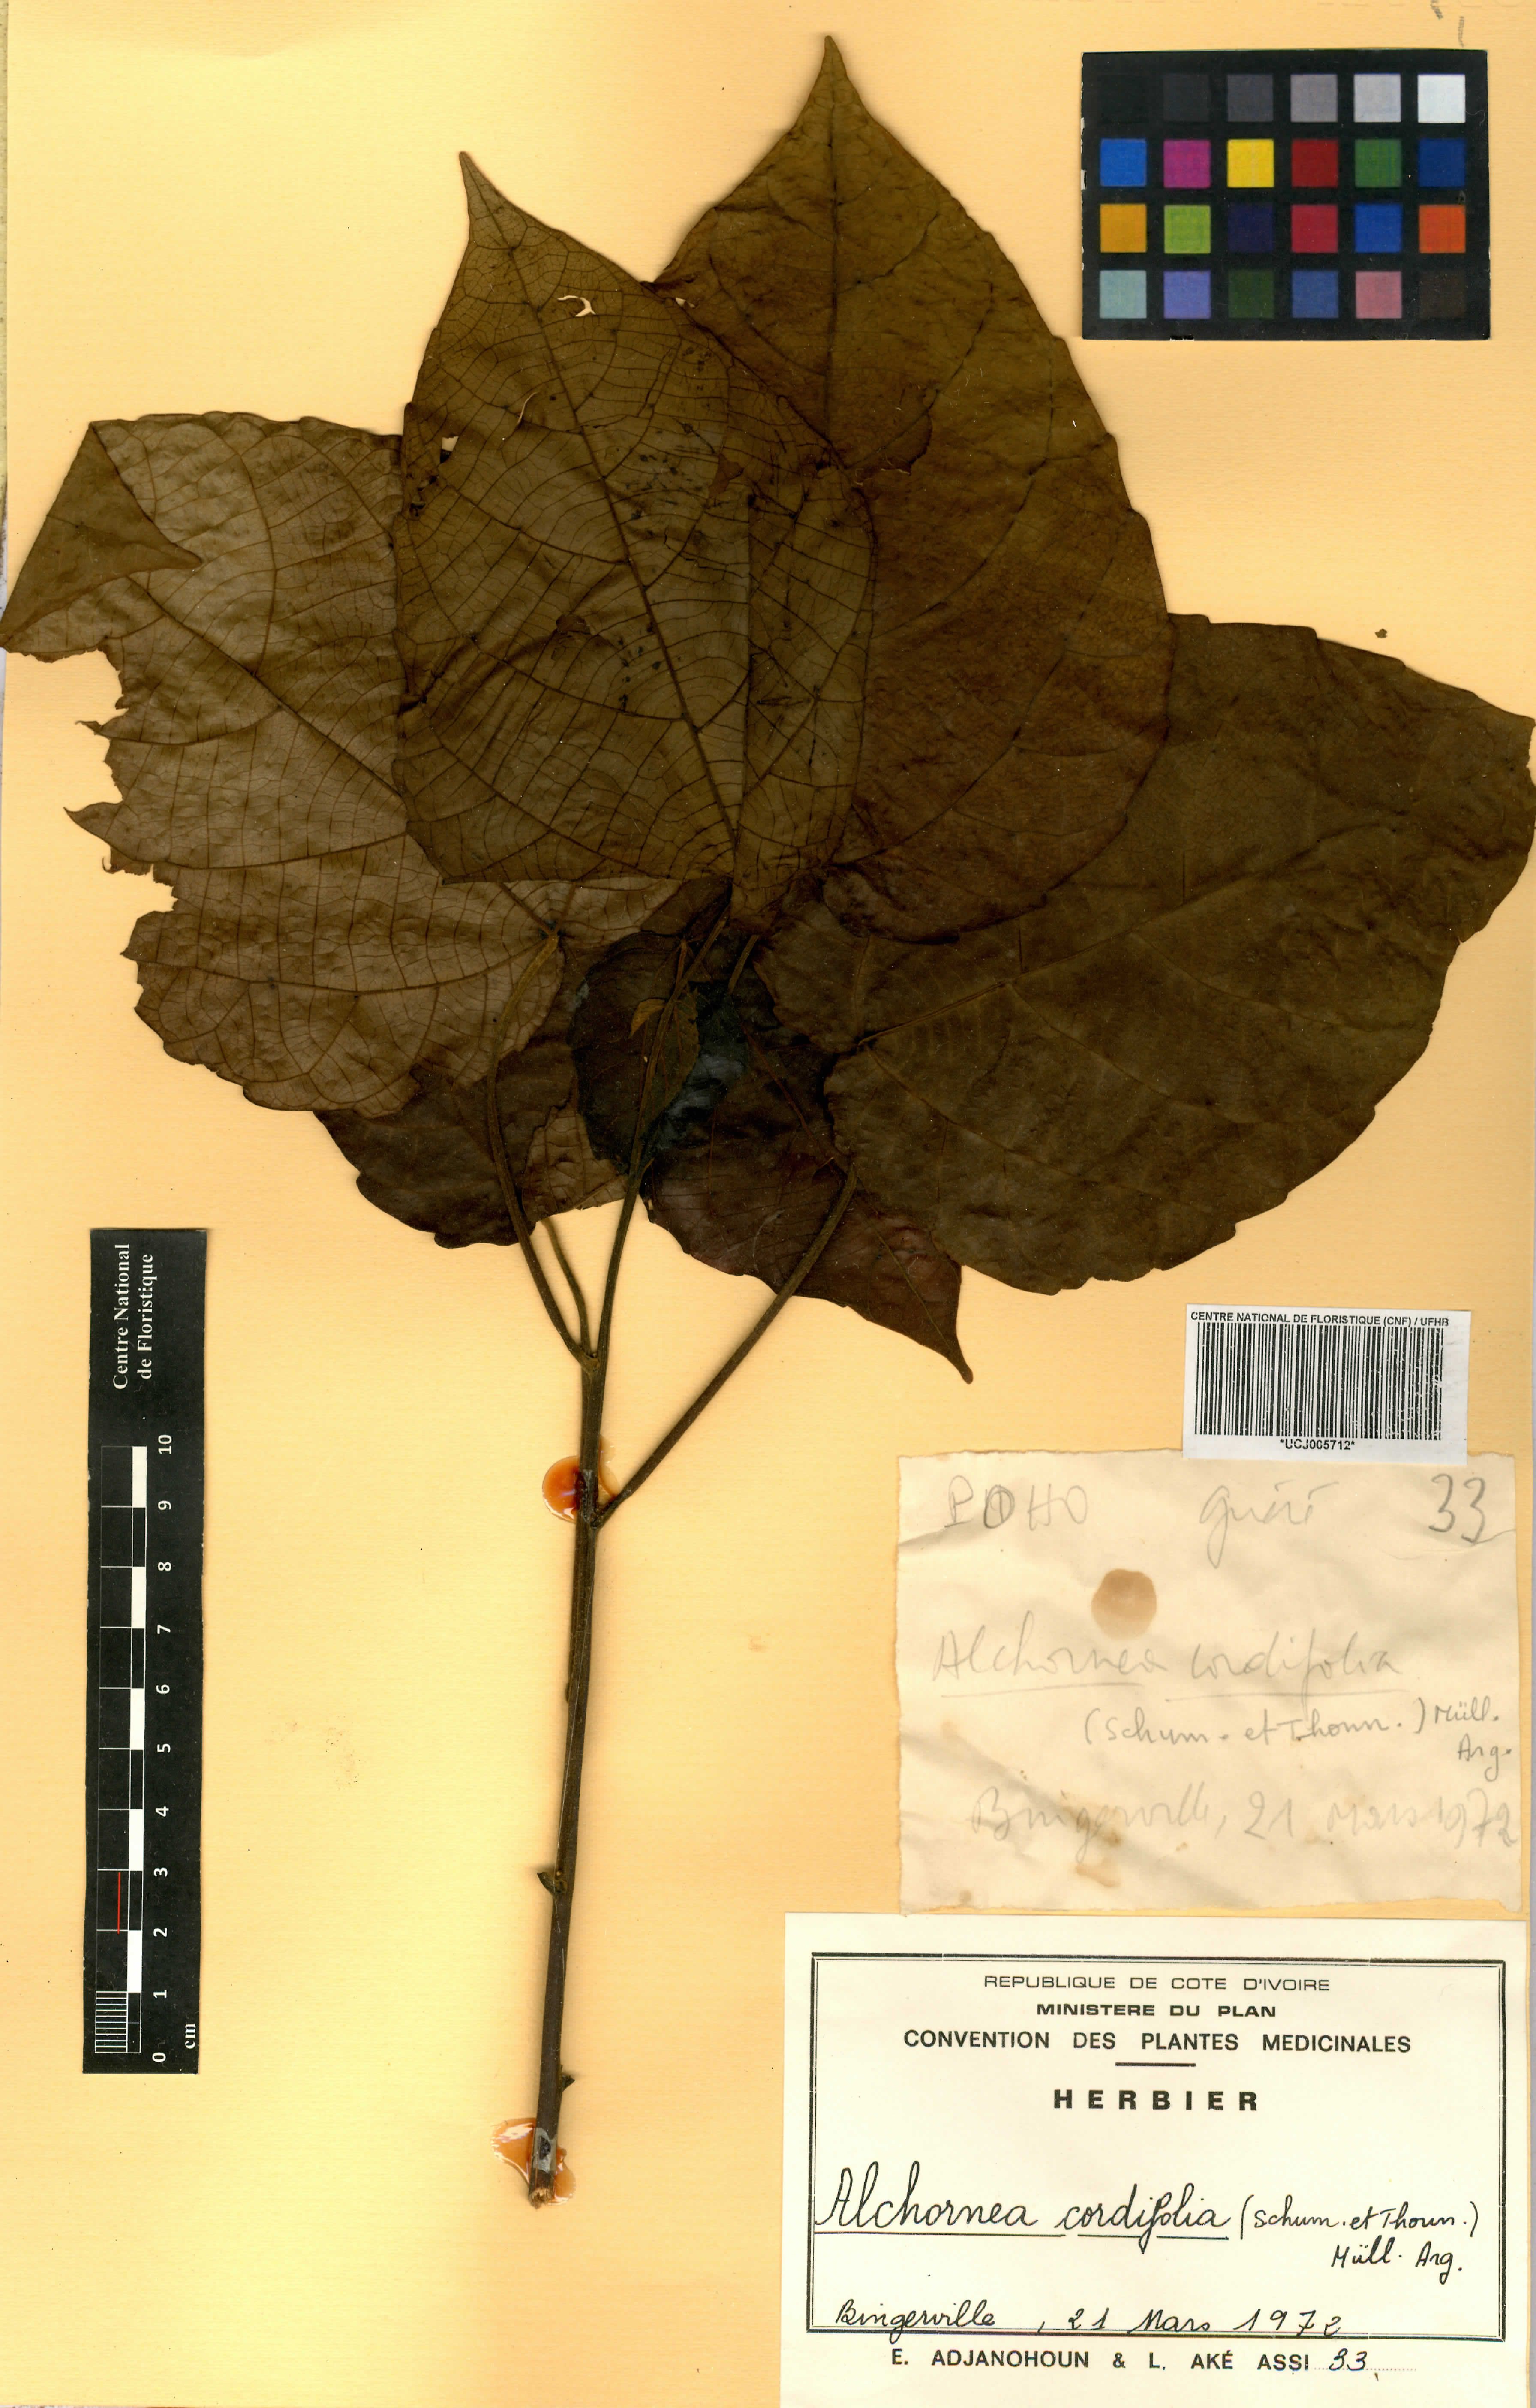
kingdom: Plantae
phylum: Tracheophyta
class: Magnoliopsida
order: Malpighiales
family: Euphorbiaceae
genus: Alchornea
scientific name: Alchornea cordifolia
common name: Christmasbush
